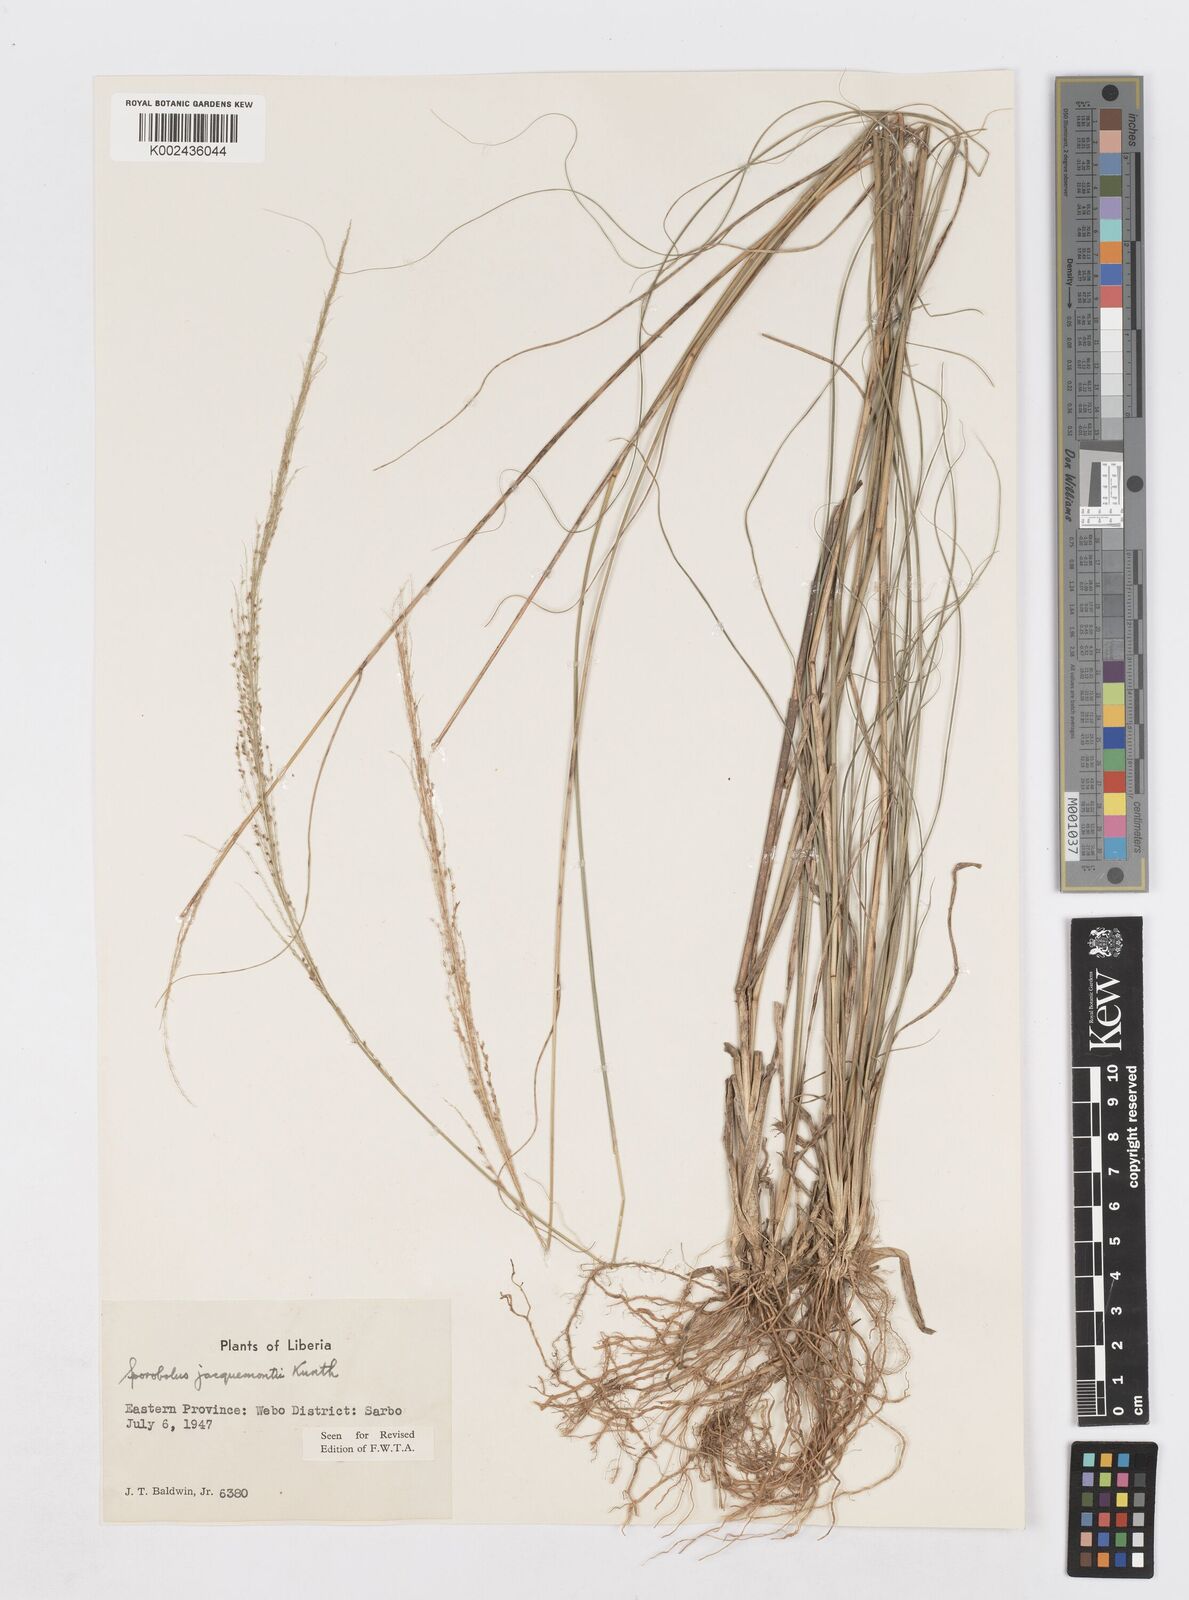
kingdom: Plantae
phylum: Tracheophyta
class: Liliopsida
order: Poales
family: Poaceae
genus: Sporobolus
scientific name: Sporobolus pyramidalis
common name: West indian dropseed
